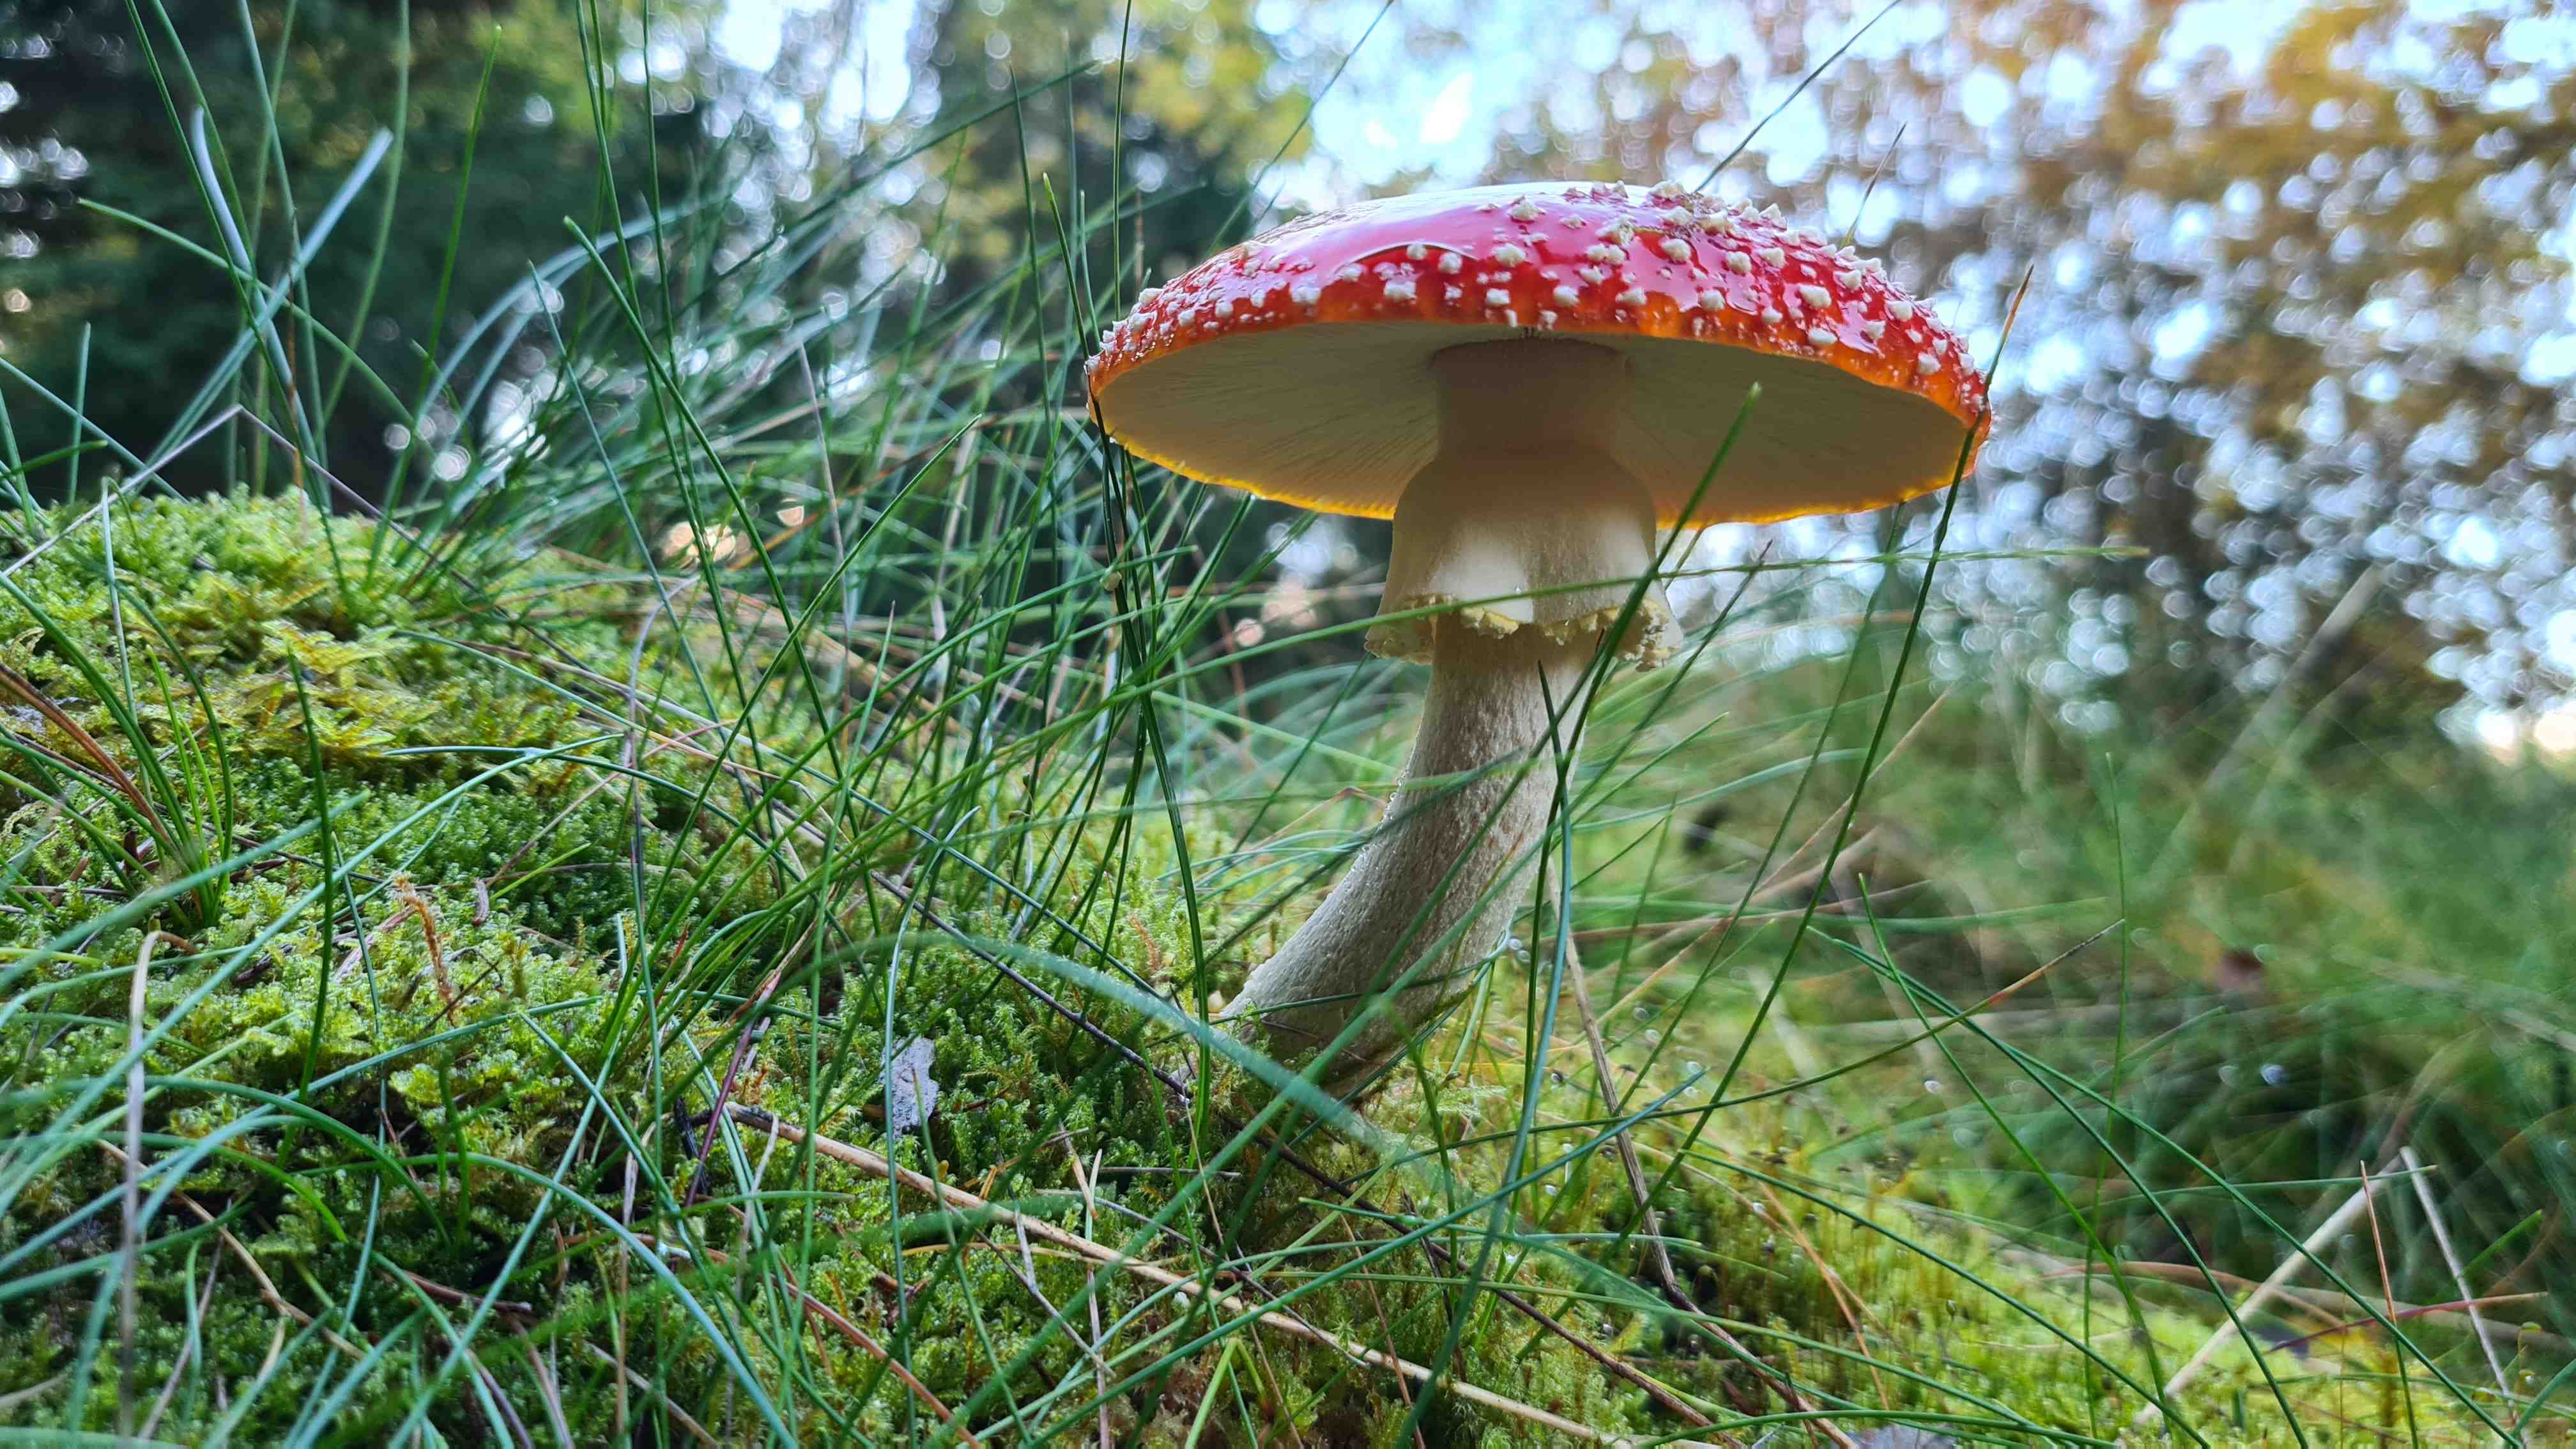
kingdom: Fungi
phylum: Basidiomycota
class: Agaricomycetes
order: Agaricales
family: Amanitaceae
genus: Amanita
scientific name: Amanita muscaria
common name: rød fluesvamp
